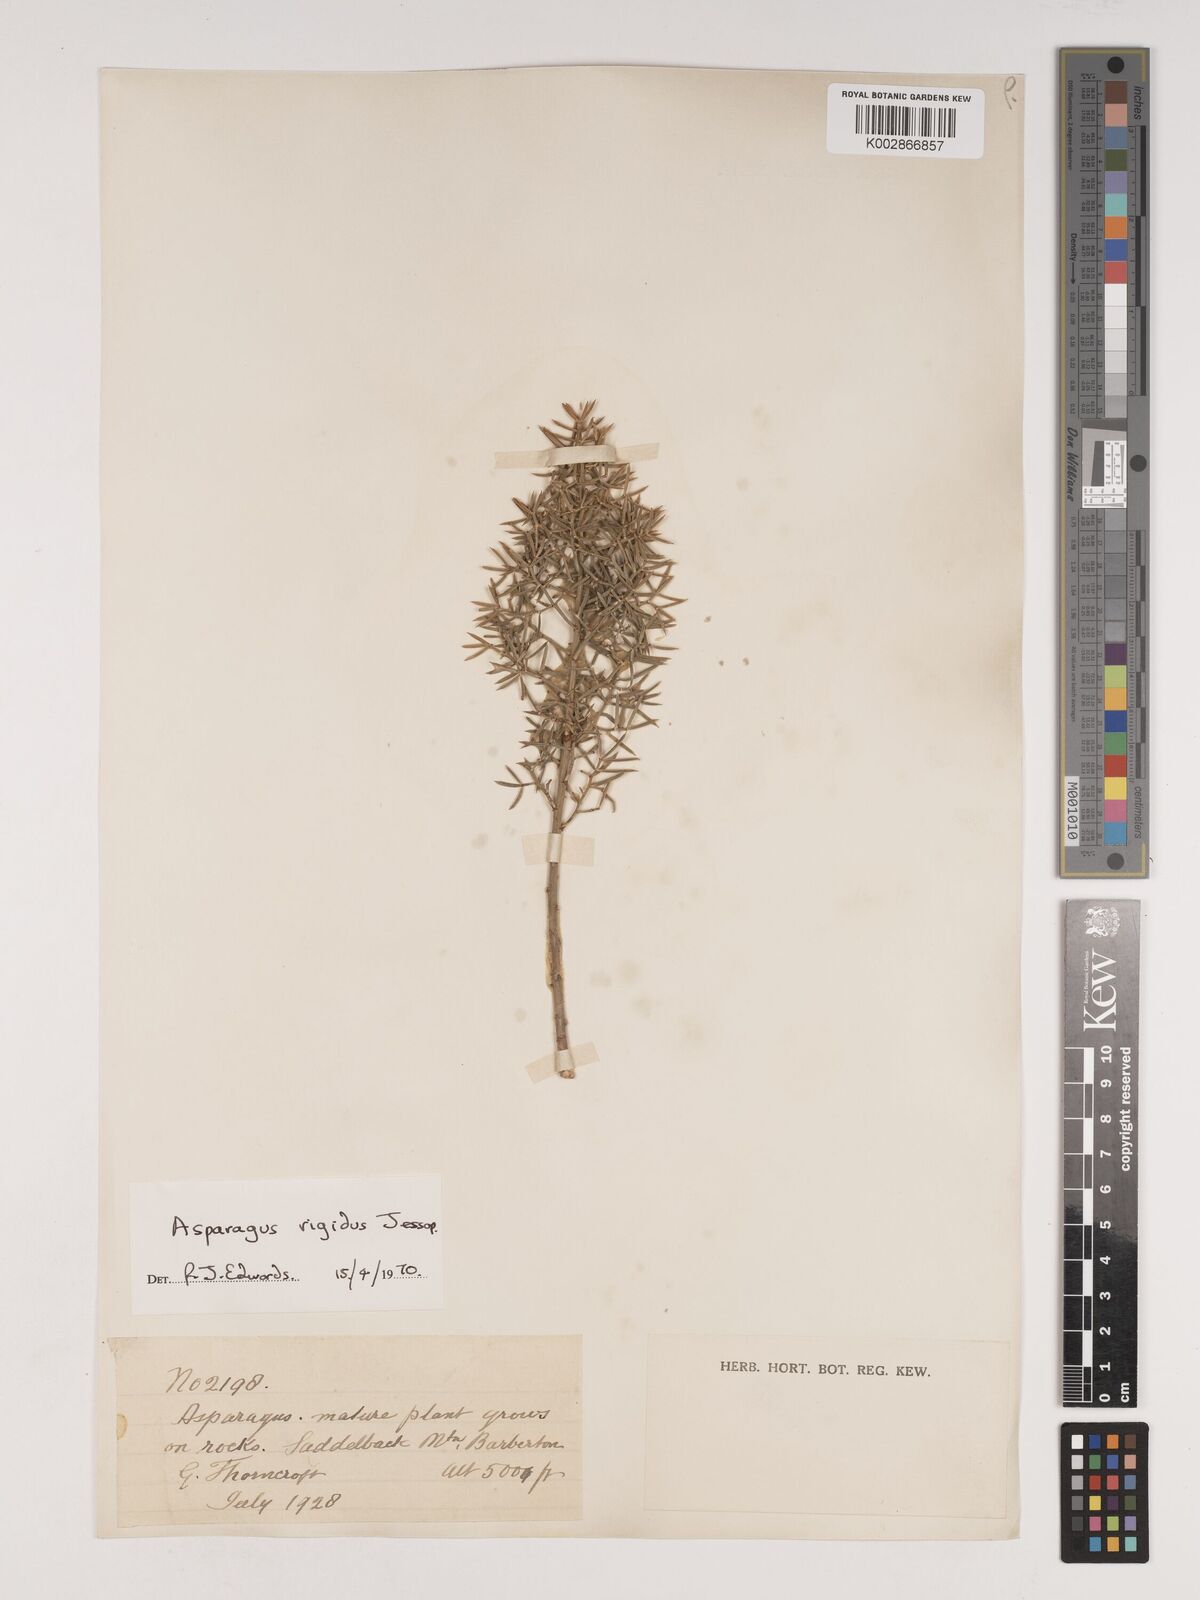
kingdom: Plantae
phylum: Tracheophyta
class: Liliopsida
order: Asparagales
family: Asparagaceae
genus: Asparagus
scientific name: Asparagus rigidus
